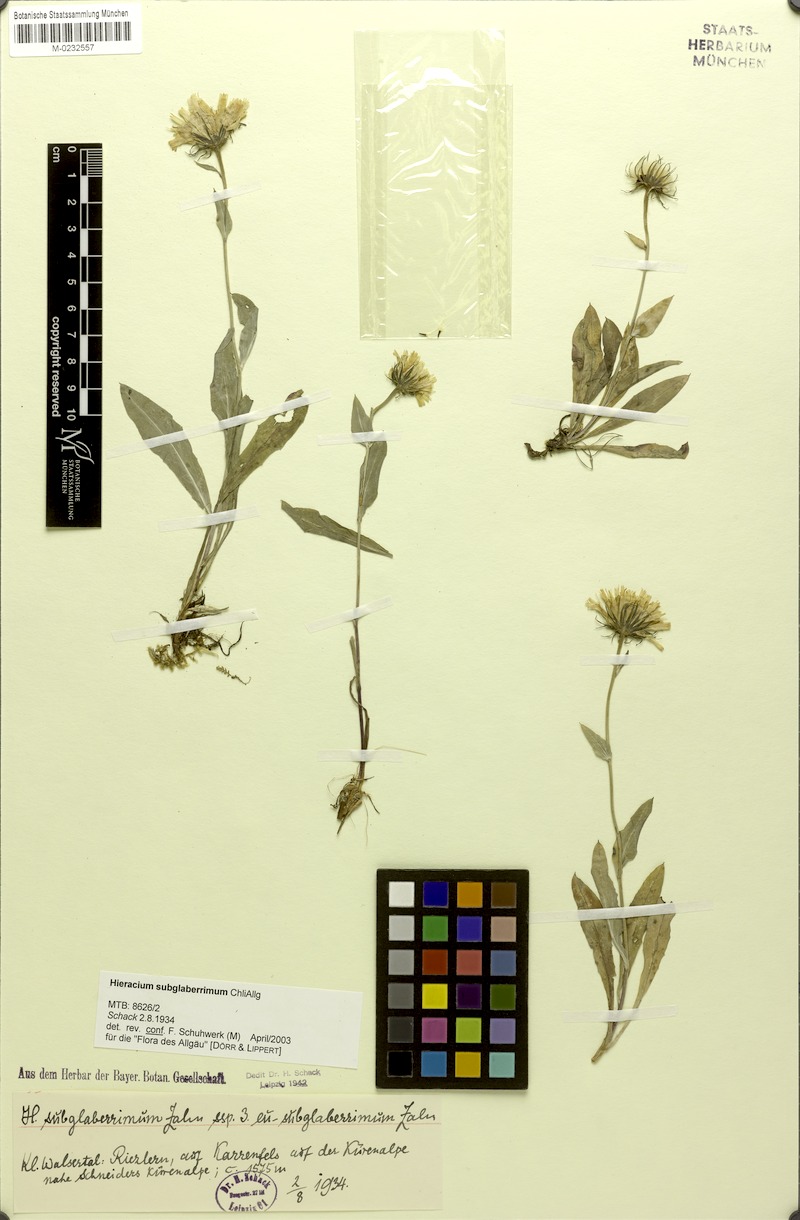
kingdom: Plantae
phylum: Tracheophyta
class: Magnoliopsida
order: Asterales
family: Asteraceae
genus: Hieracium
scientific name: Hieracium subglaberrimum
